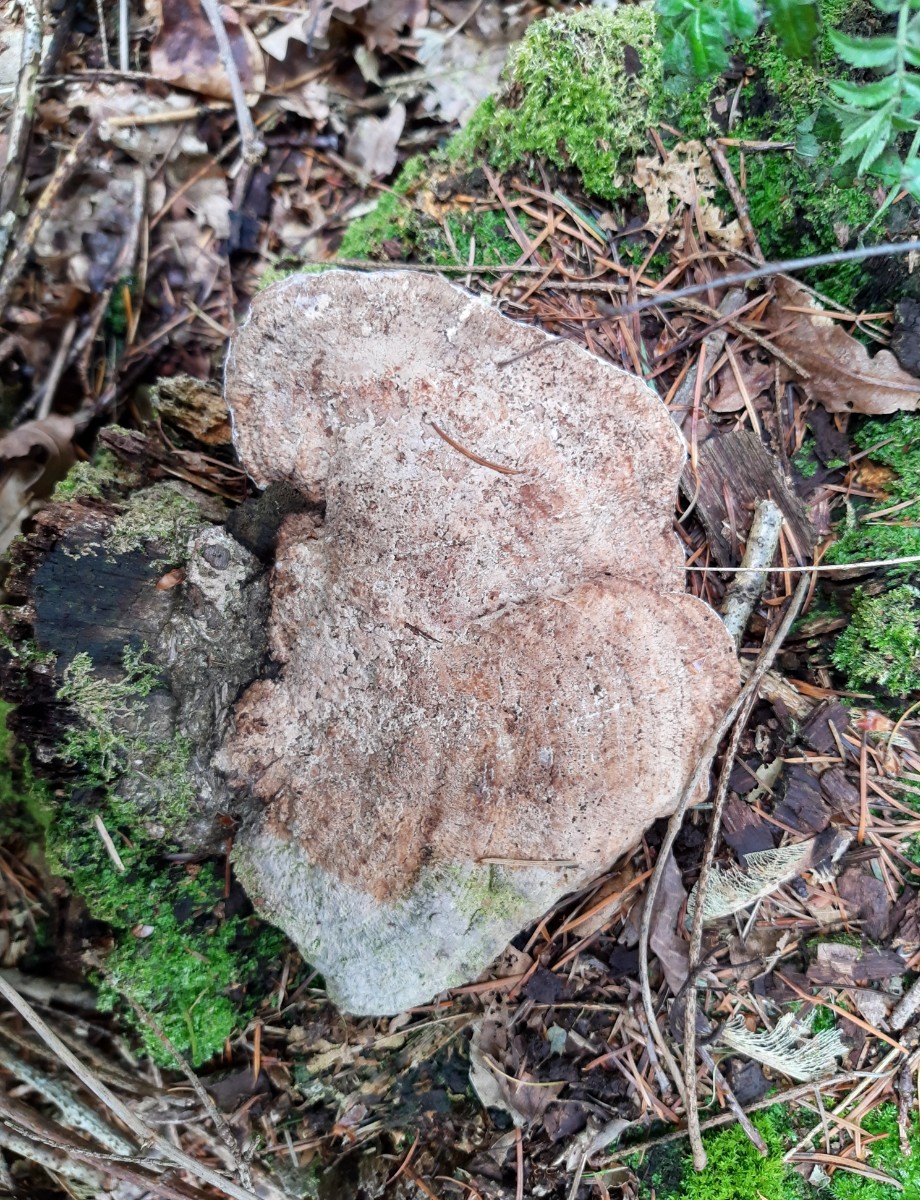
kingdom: Fungi
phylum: Basidiomycota
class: Agaricomycetes
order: Polyporales
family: Fomitopsidaceae
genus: Daedalea
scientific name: Daedalea quercina
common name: ege-labyrintsvamp
